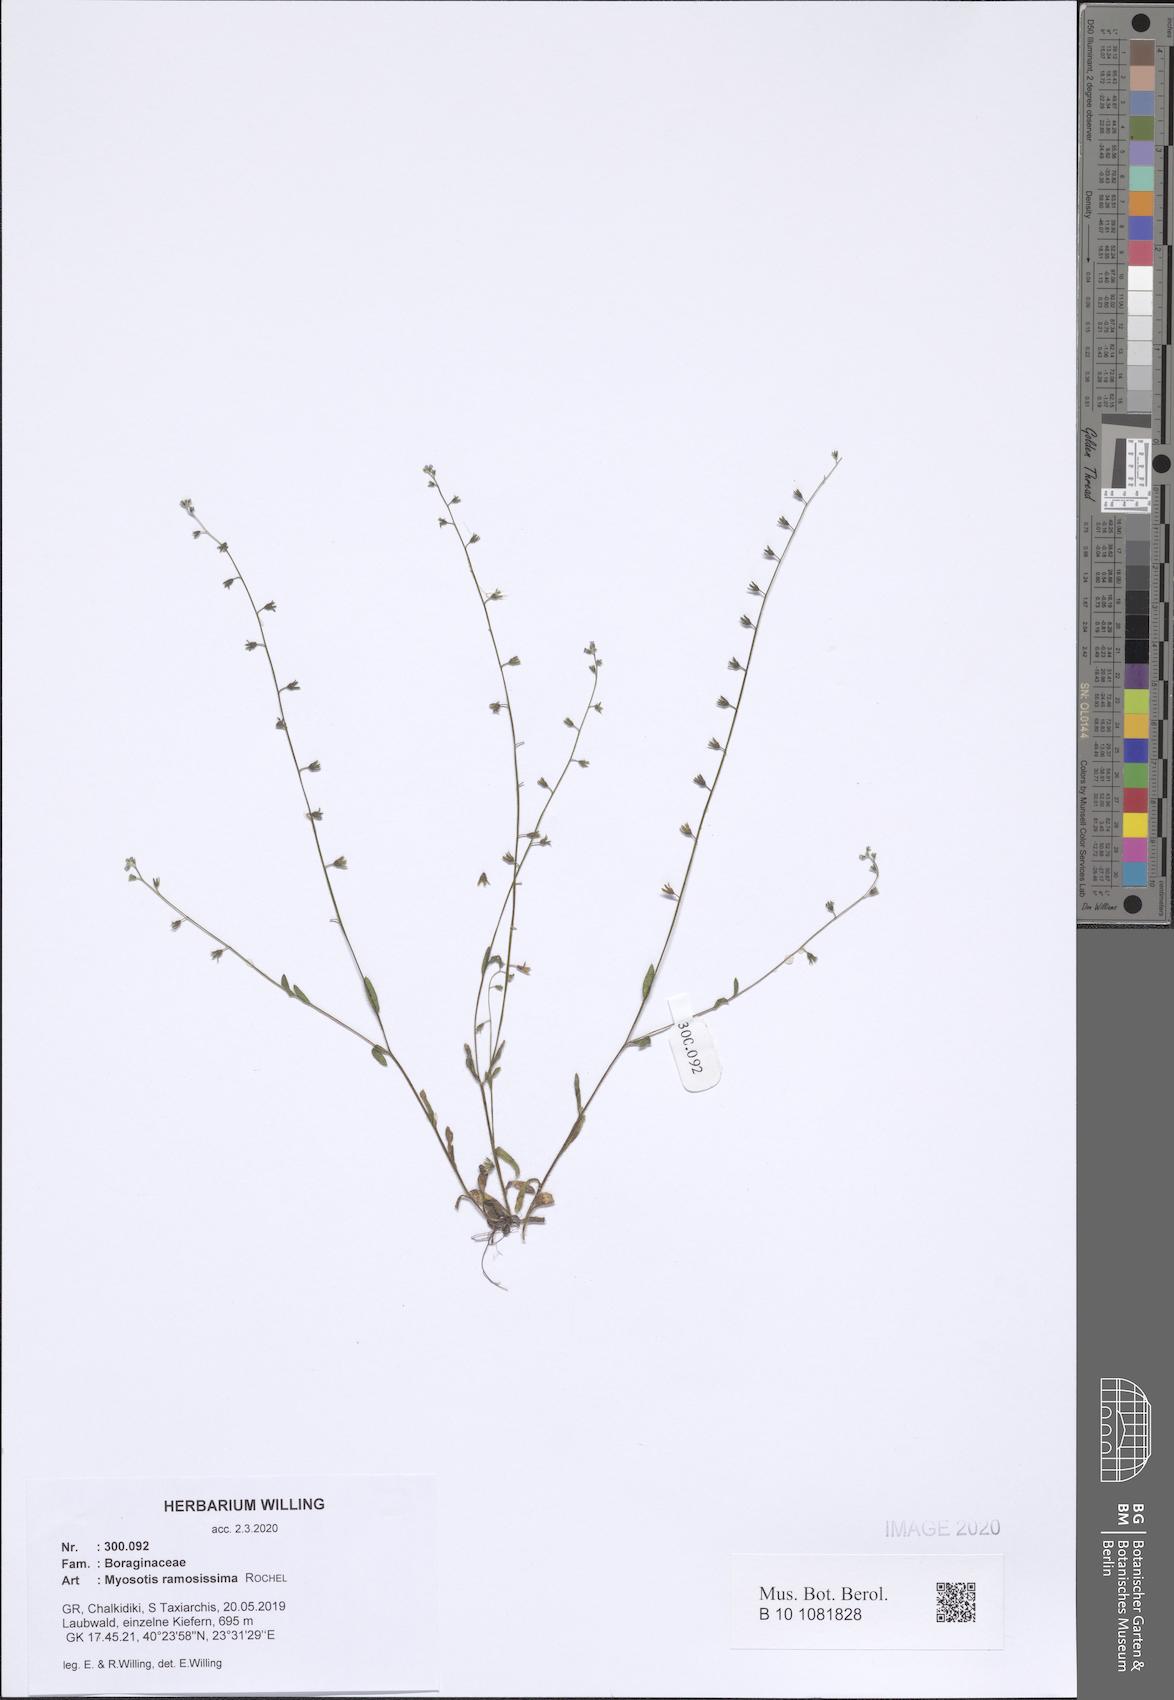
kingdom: Plantae
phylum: Tracheophyta
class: Magnoliopsida
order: Boraginales
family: Boraginaceae
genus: Myosotis
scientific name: Myosotis ramosissima
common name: Early forget-me-not
